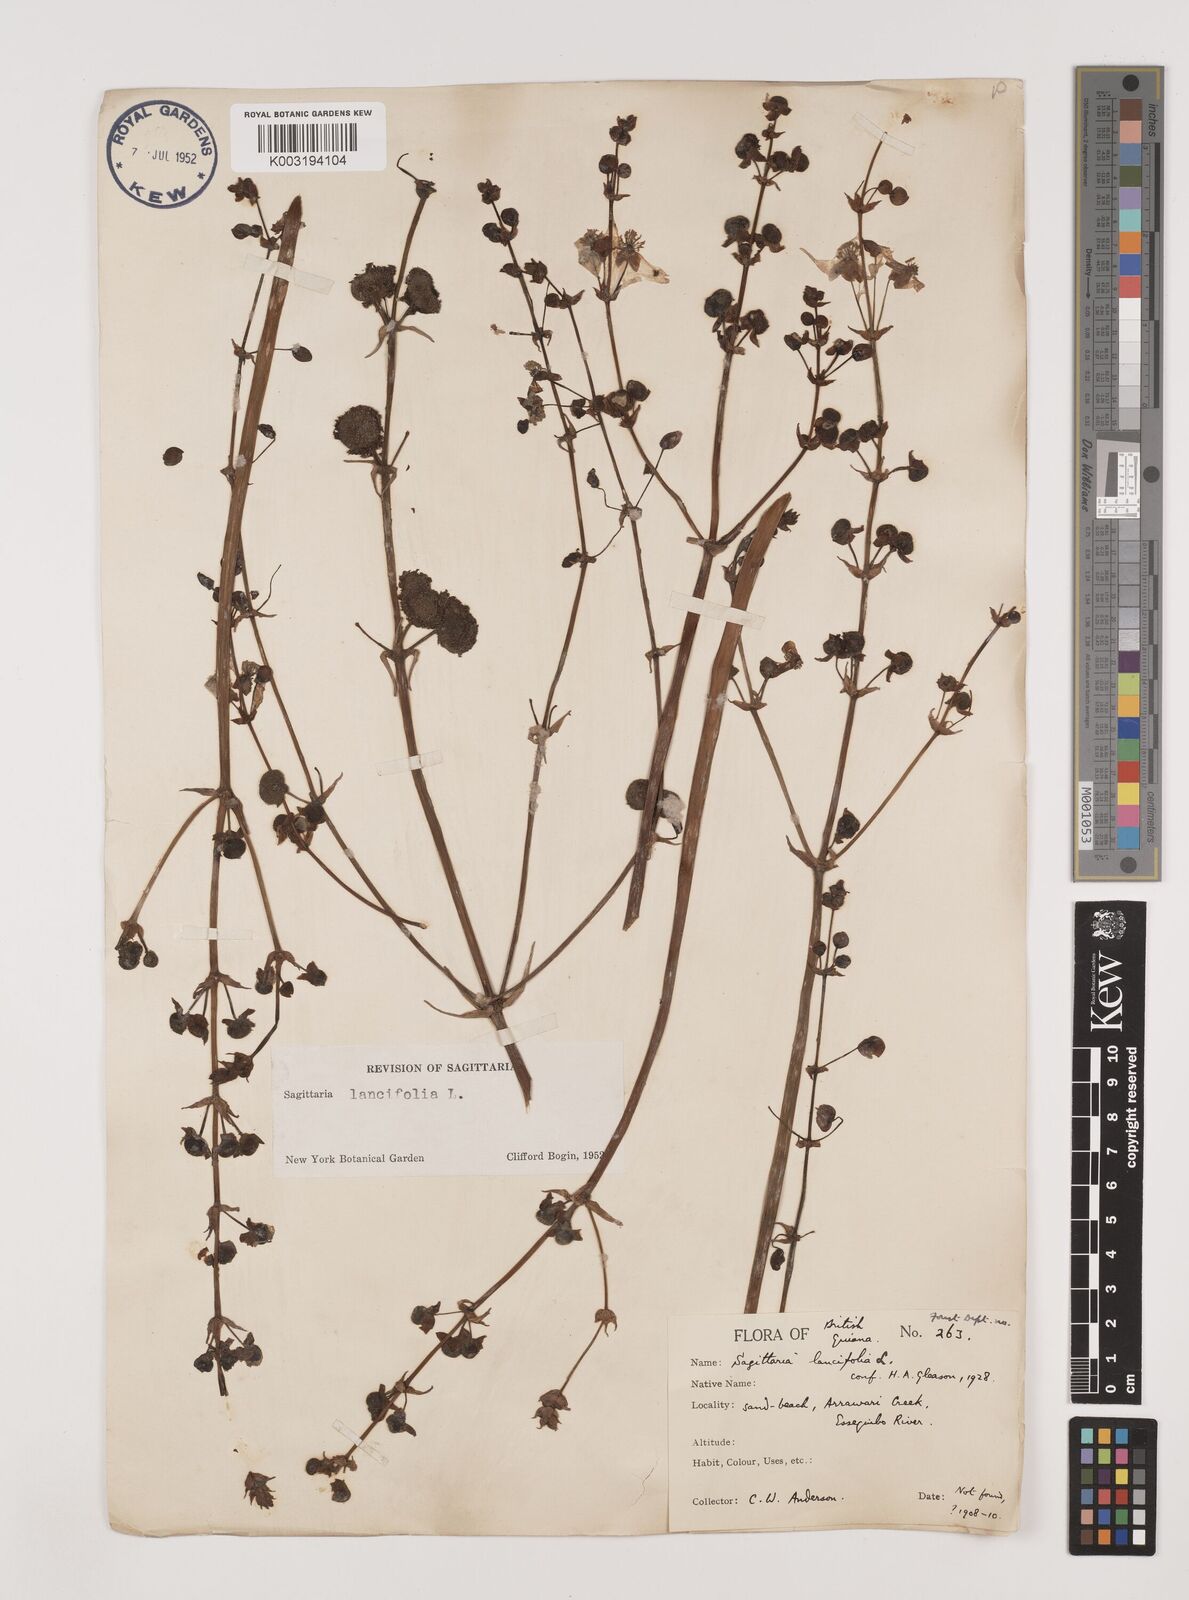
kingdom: Plantae
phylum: Tracheophyta
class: Liliopsida
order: Alismatales
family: Alismataceae
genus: Sagittaria
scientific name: Sagittaria lancifolia
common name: Lance-leaf arrowhead
